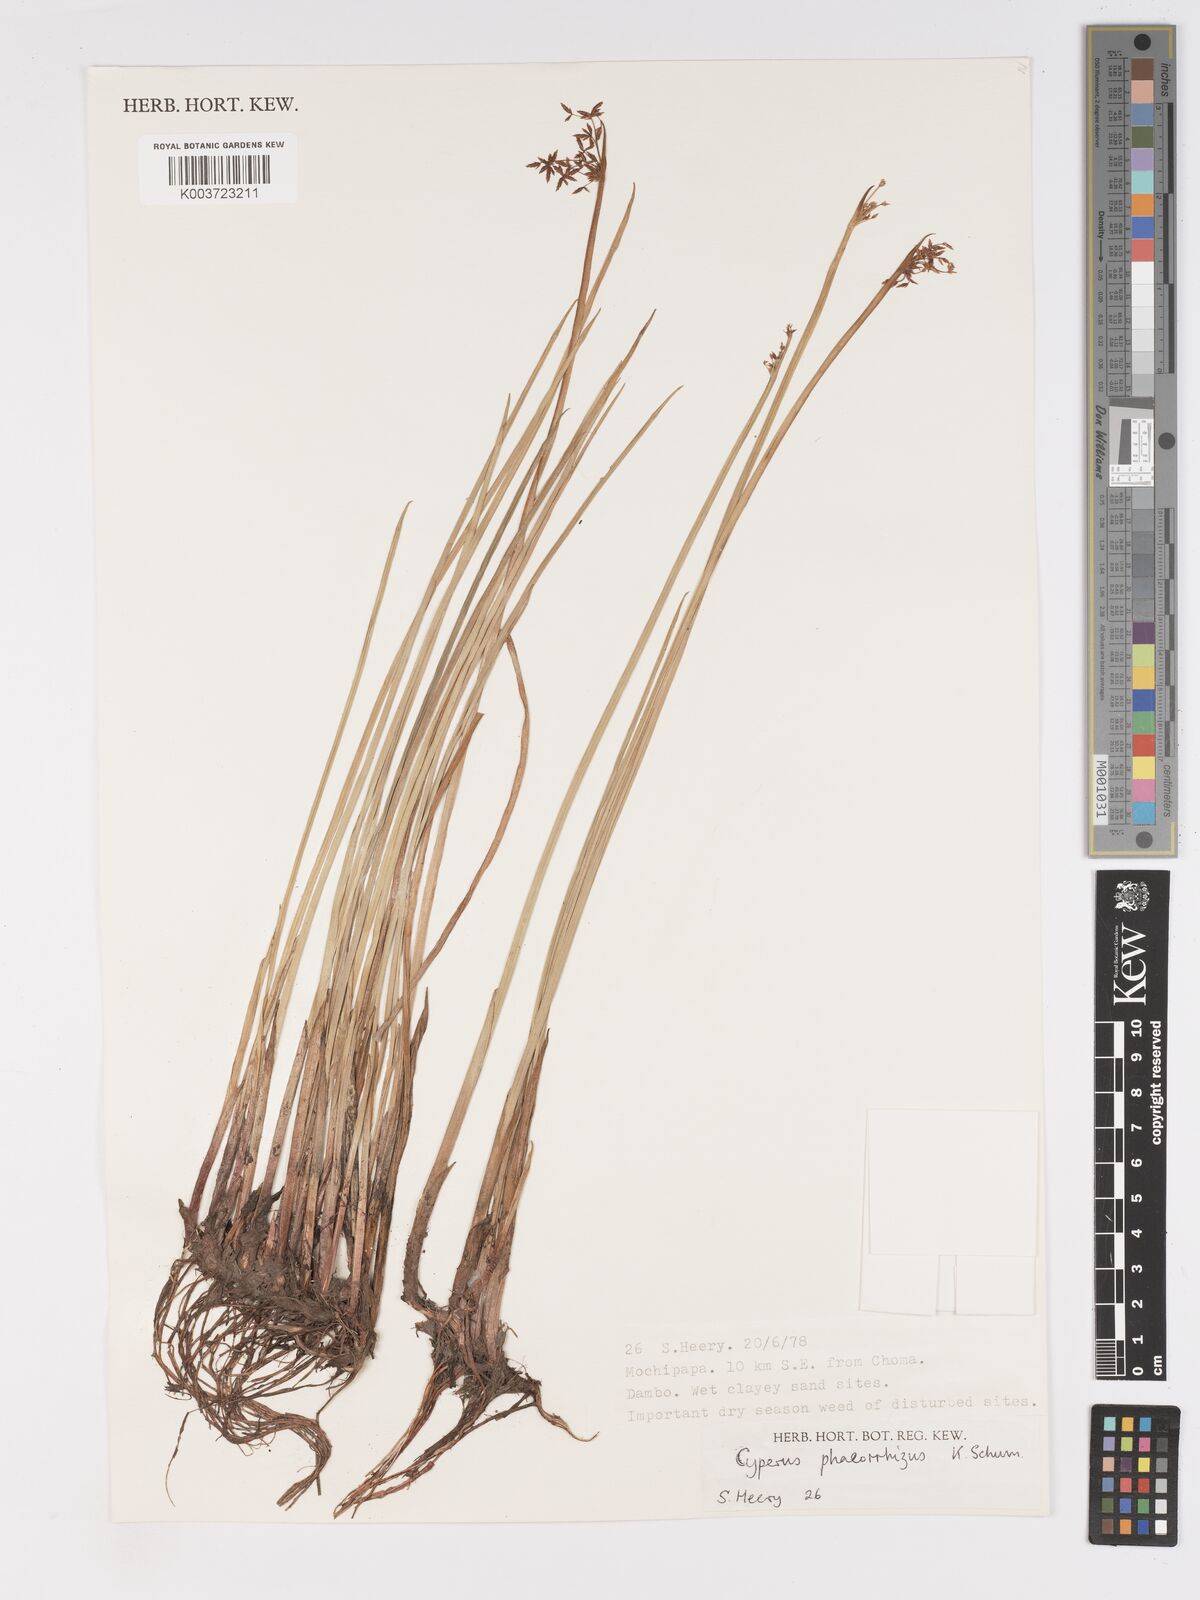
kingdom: Plantae
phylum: Tracheophyta
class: Liliopsida
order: Poales
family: Cyperaceae
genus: Cyperus
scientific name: Cyperus haspan
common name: Haspan flatsedge
